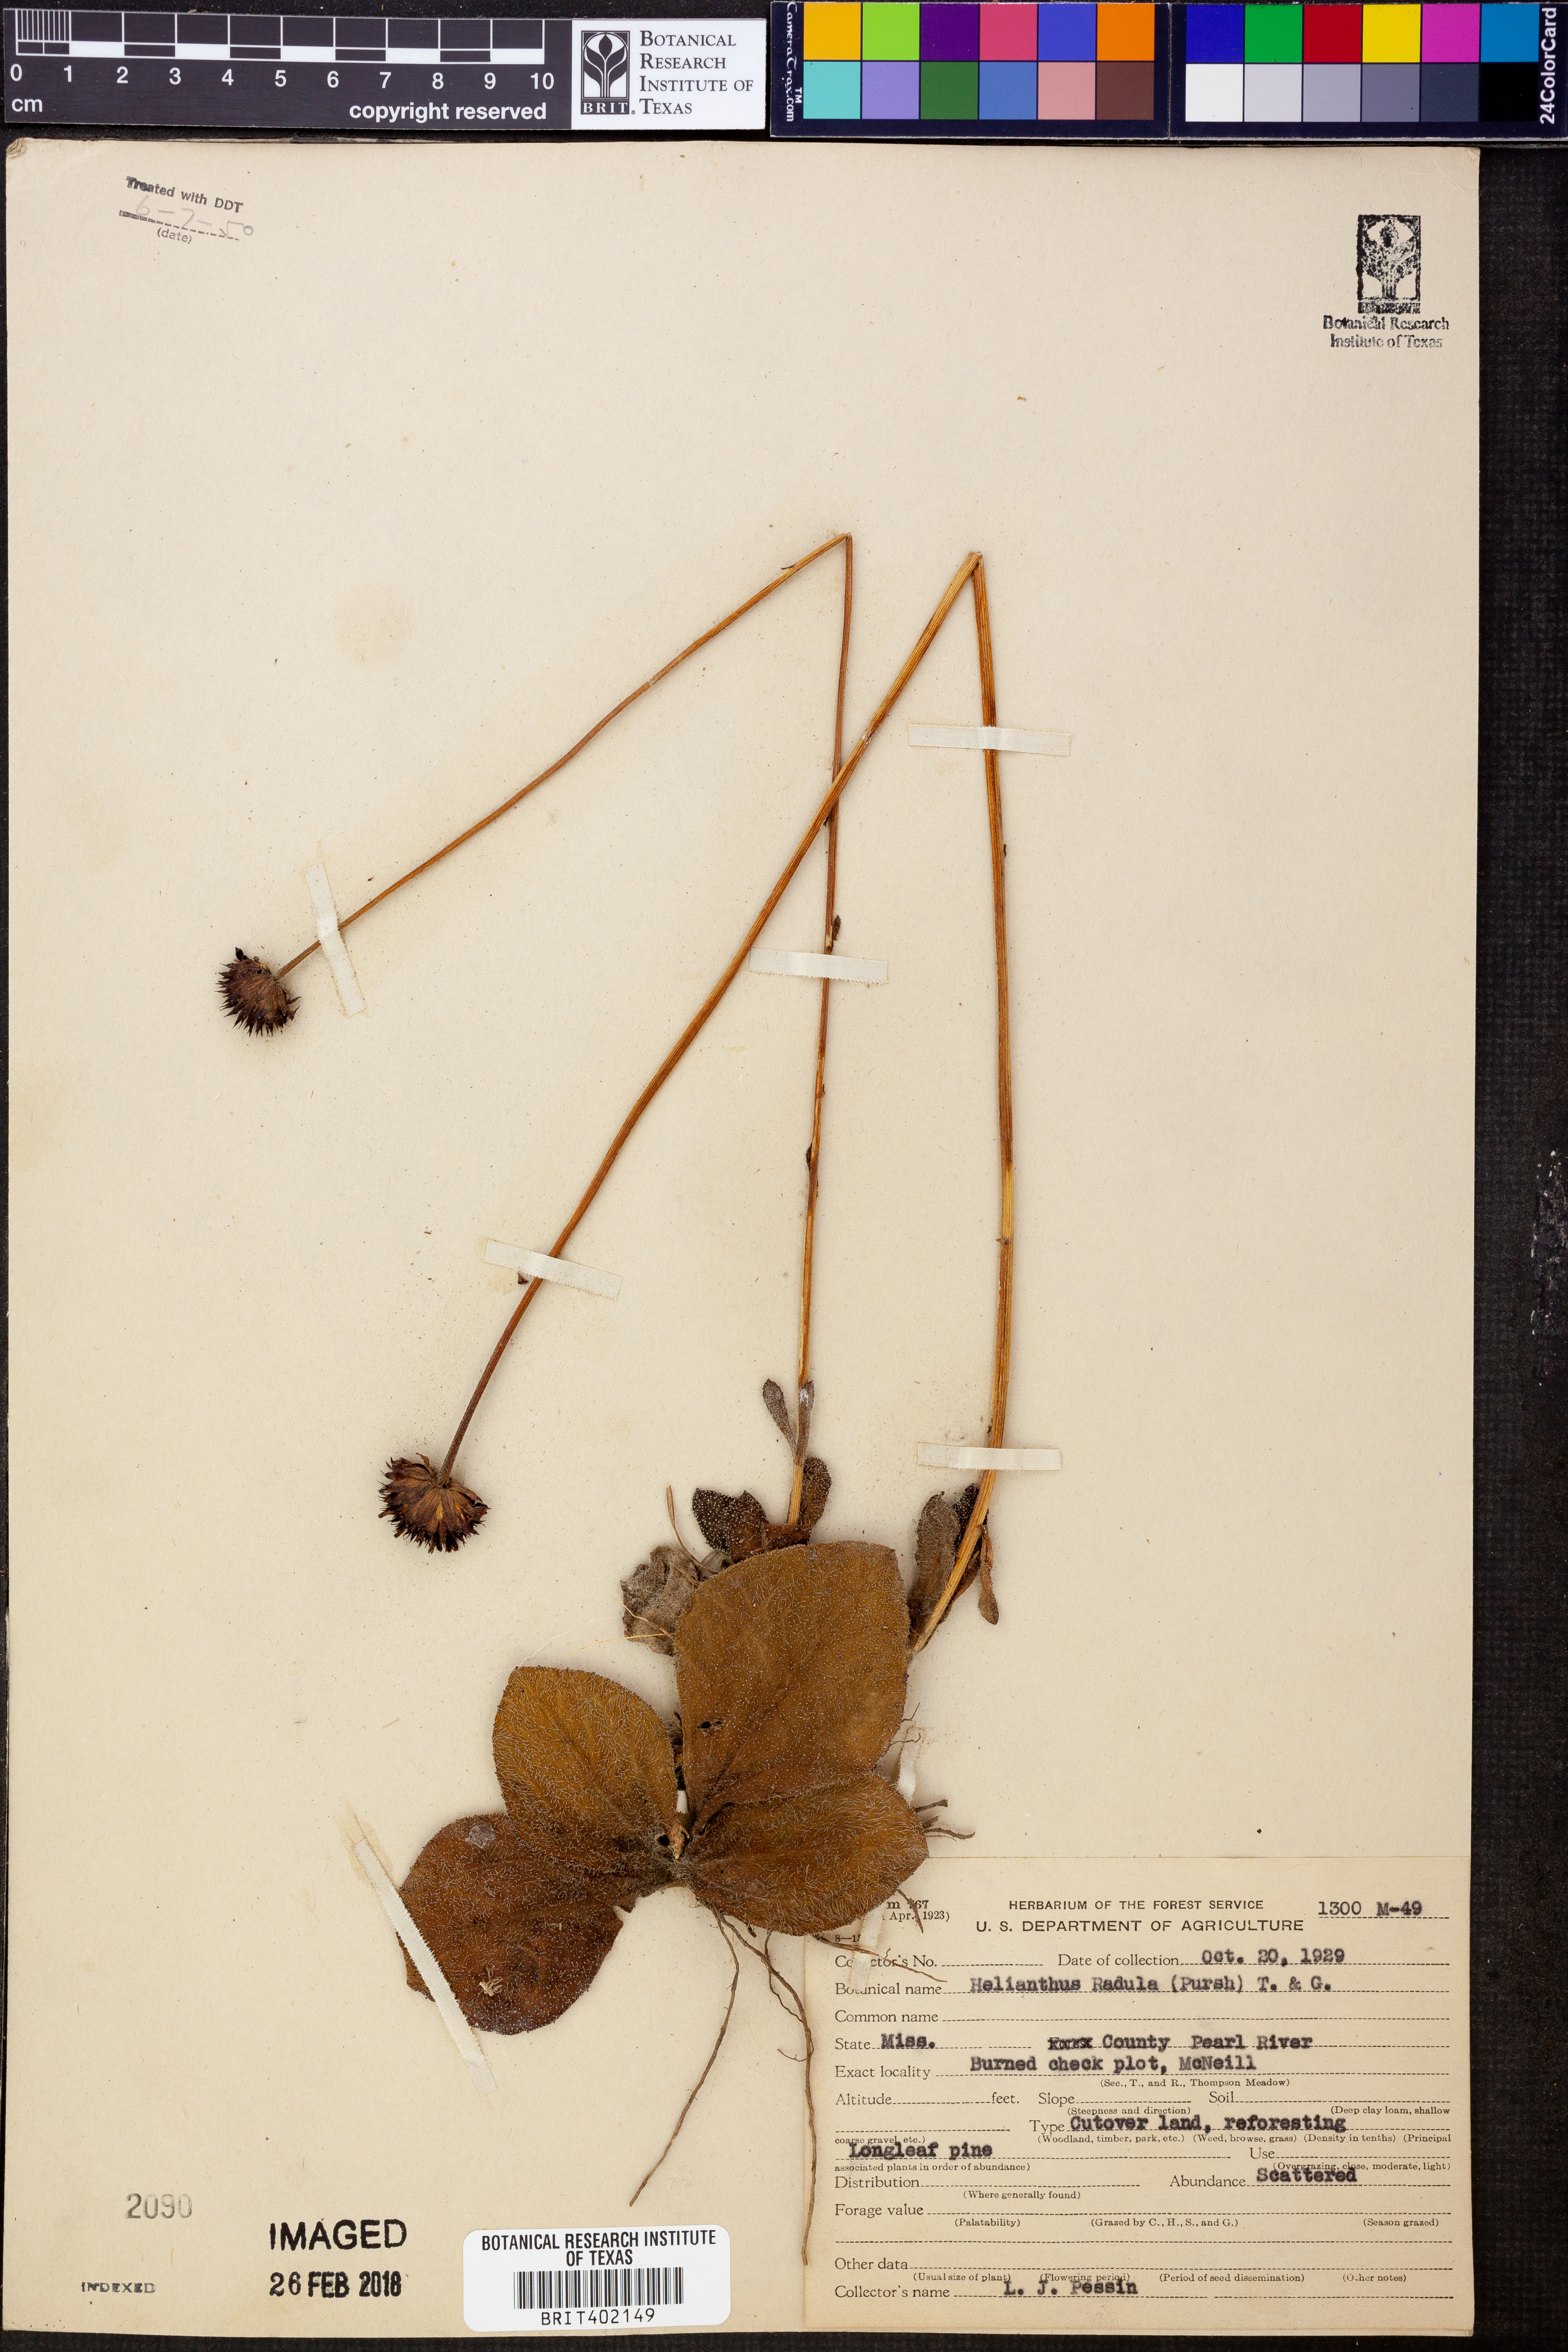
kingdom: Plantae
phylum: Tracheophyta
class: Magnoliopsida
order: Asterales
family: Asteraceae
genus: Helianthus
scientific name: Helianthus radula
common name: Pineland sunflower
